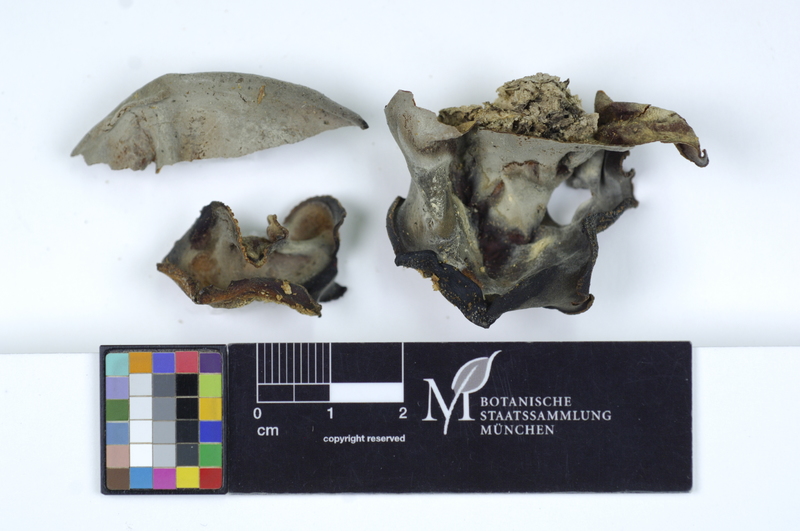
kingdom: Plantae
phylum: Tracheophyta
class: Magnoliopsida
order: Fagales
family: Fagaceae
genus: Fagus
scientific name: Fagus sylvatica
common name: Beech
